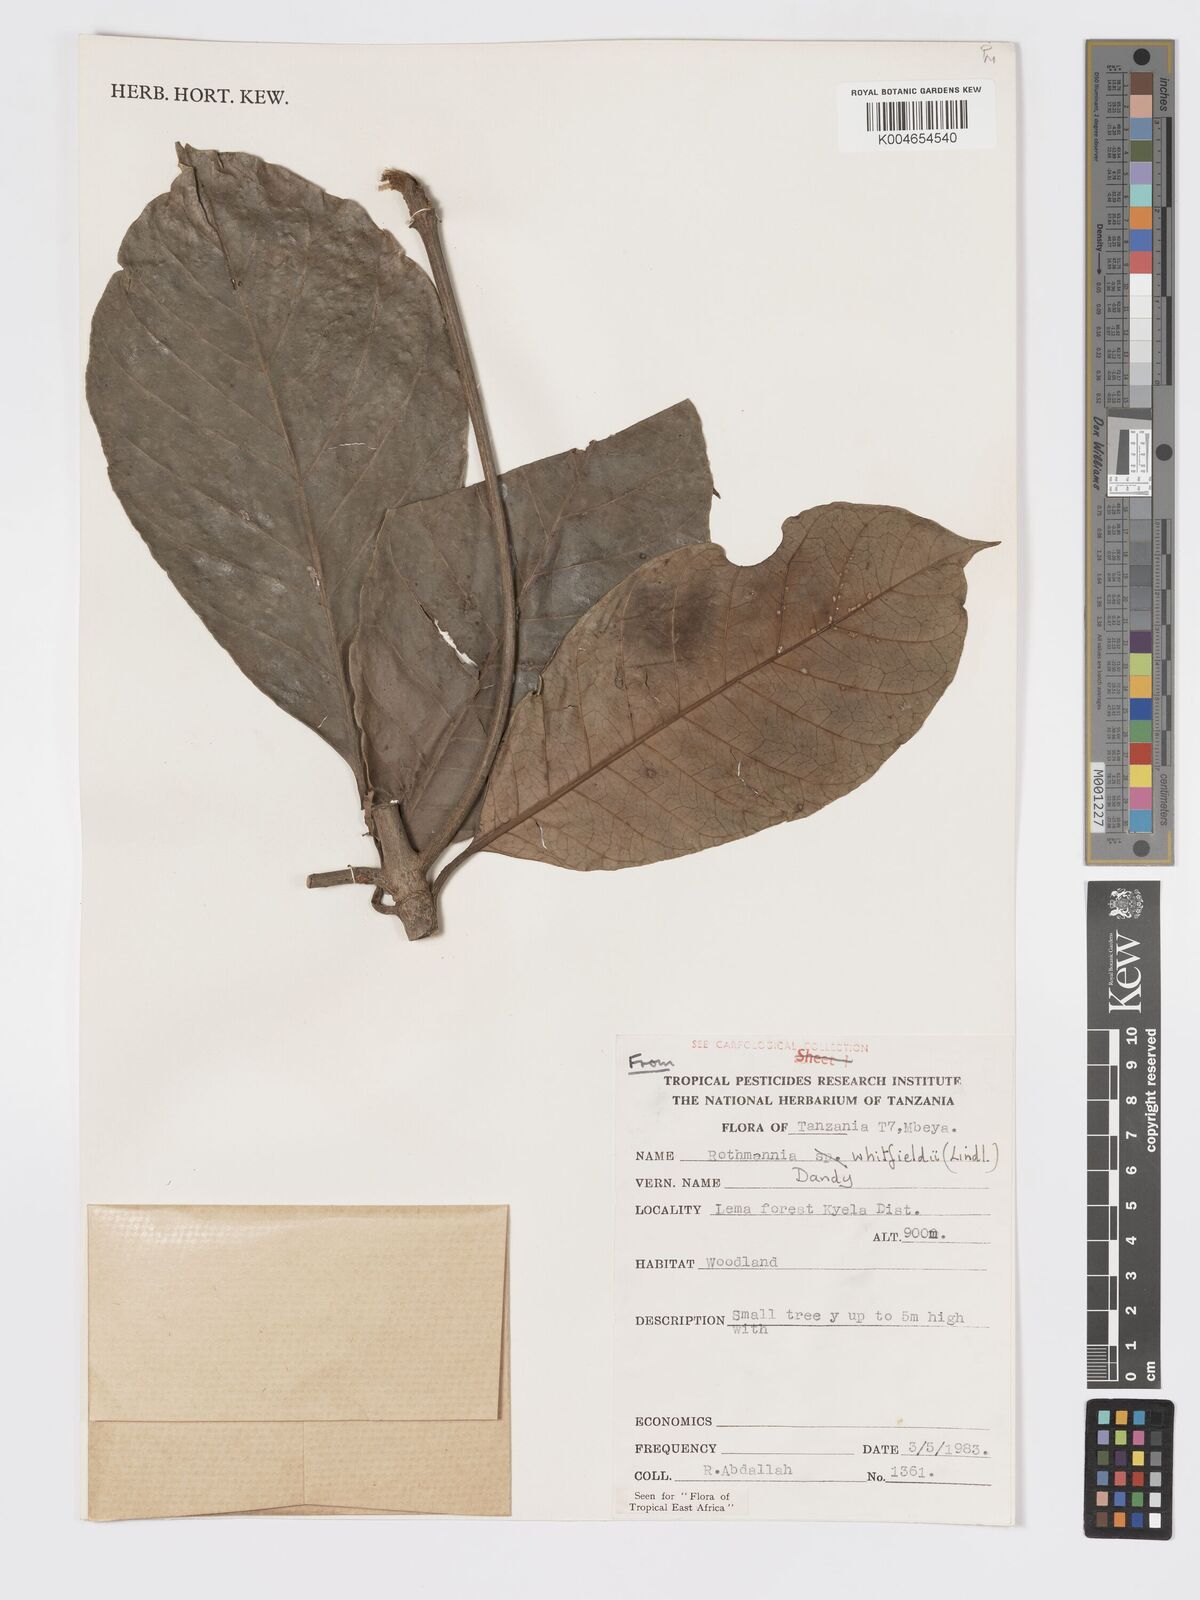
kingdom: Plantae
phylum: Tracheophyta
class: Magnoliopsida
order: Gentianales
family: Rubiaceae
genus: Rothmannia
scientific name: Rothmannia whitfieldii
